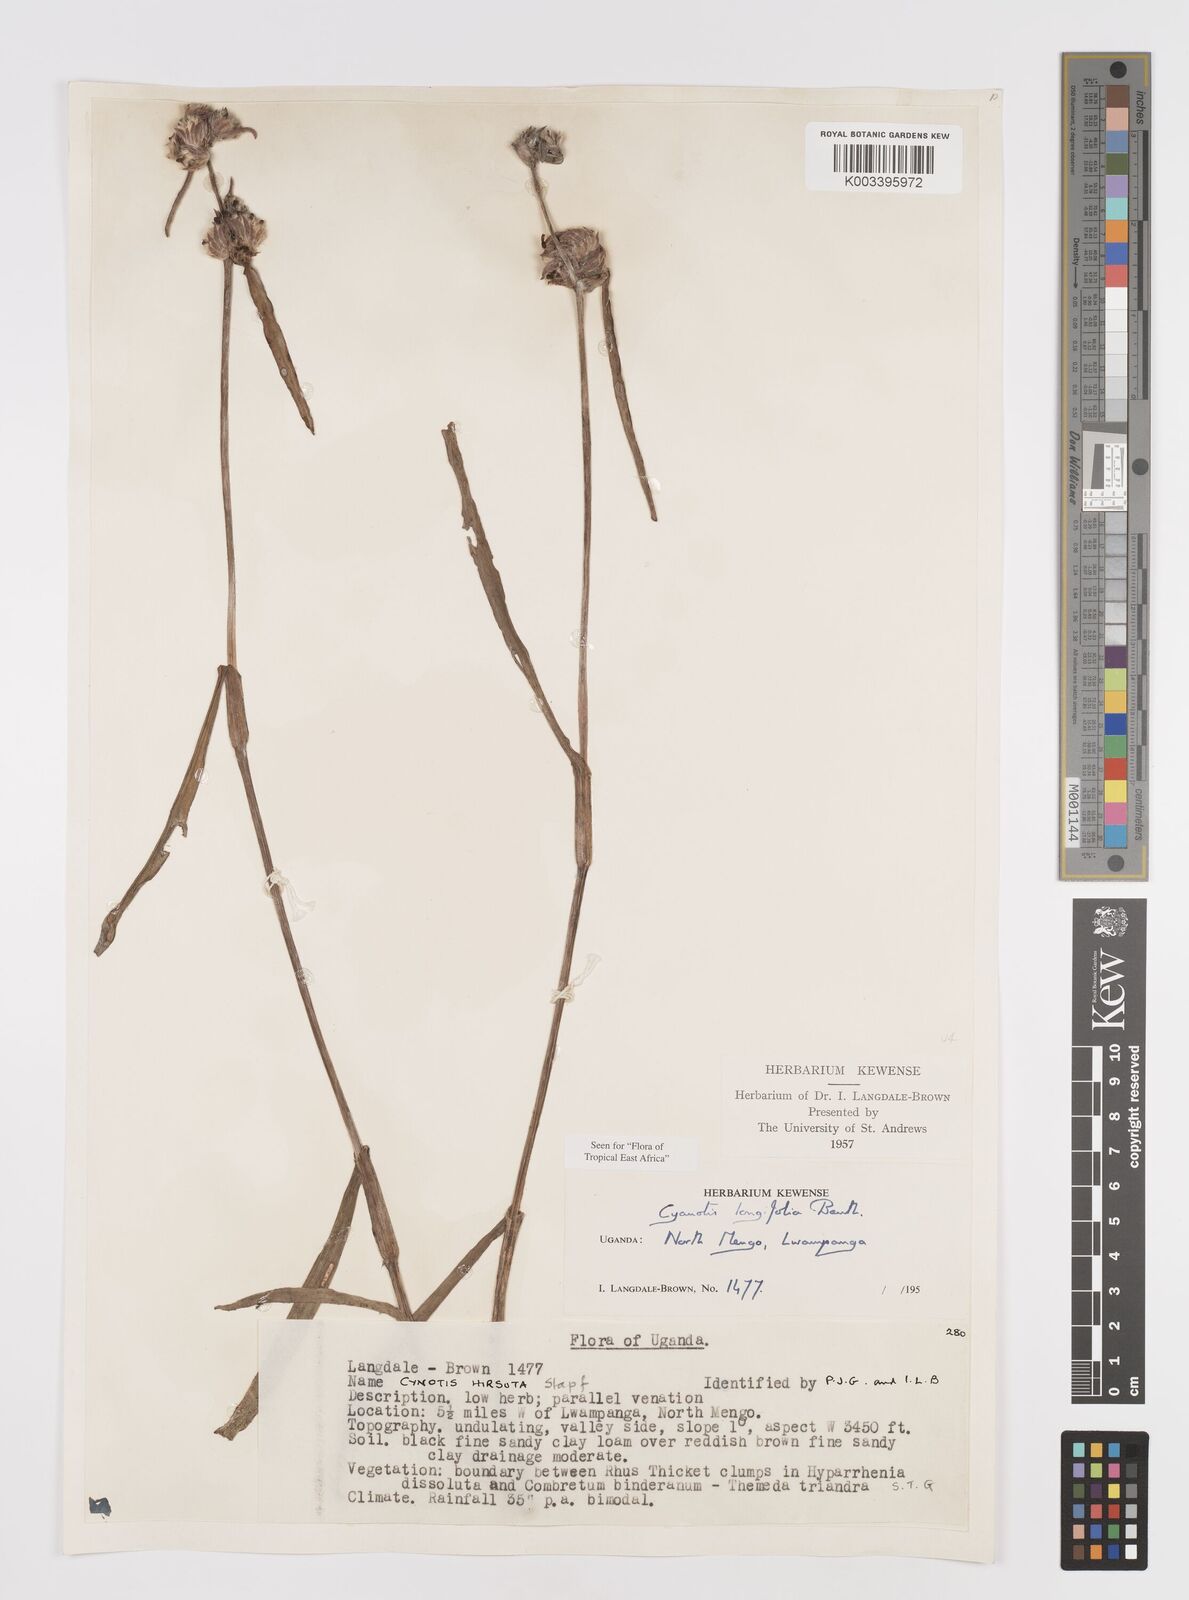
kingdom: Plantae
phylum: Tracheophyta
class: Liliopsida
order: Commelinales
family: Commelinaceae
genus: Cyanotis
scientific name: Cyanotis longifolia
